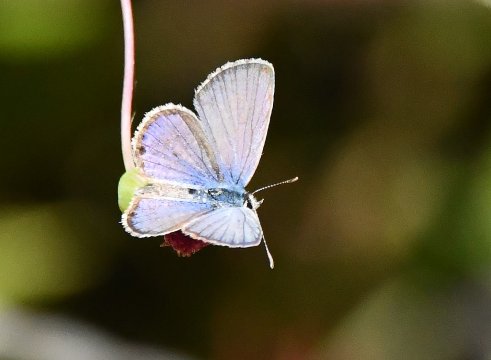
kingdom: Animalia
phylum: Arthropoda
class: Insecta
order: Lepidoptera
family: Lycaenidae
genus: Elkalyce
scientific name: Elkalyce comyntas
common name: Eastern Tailed-Blue
